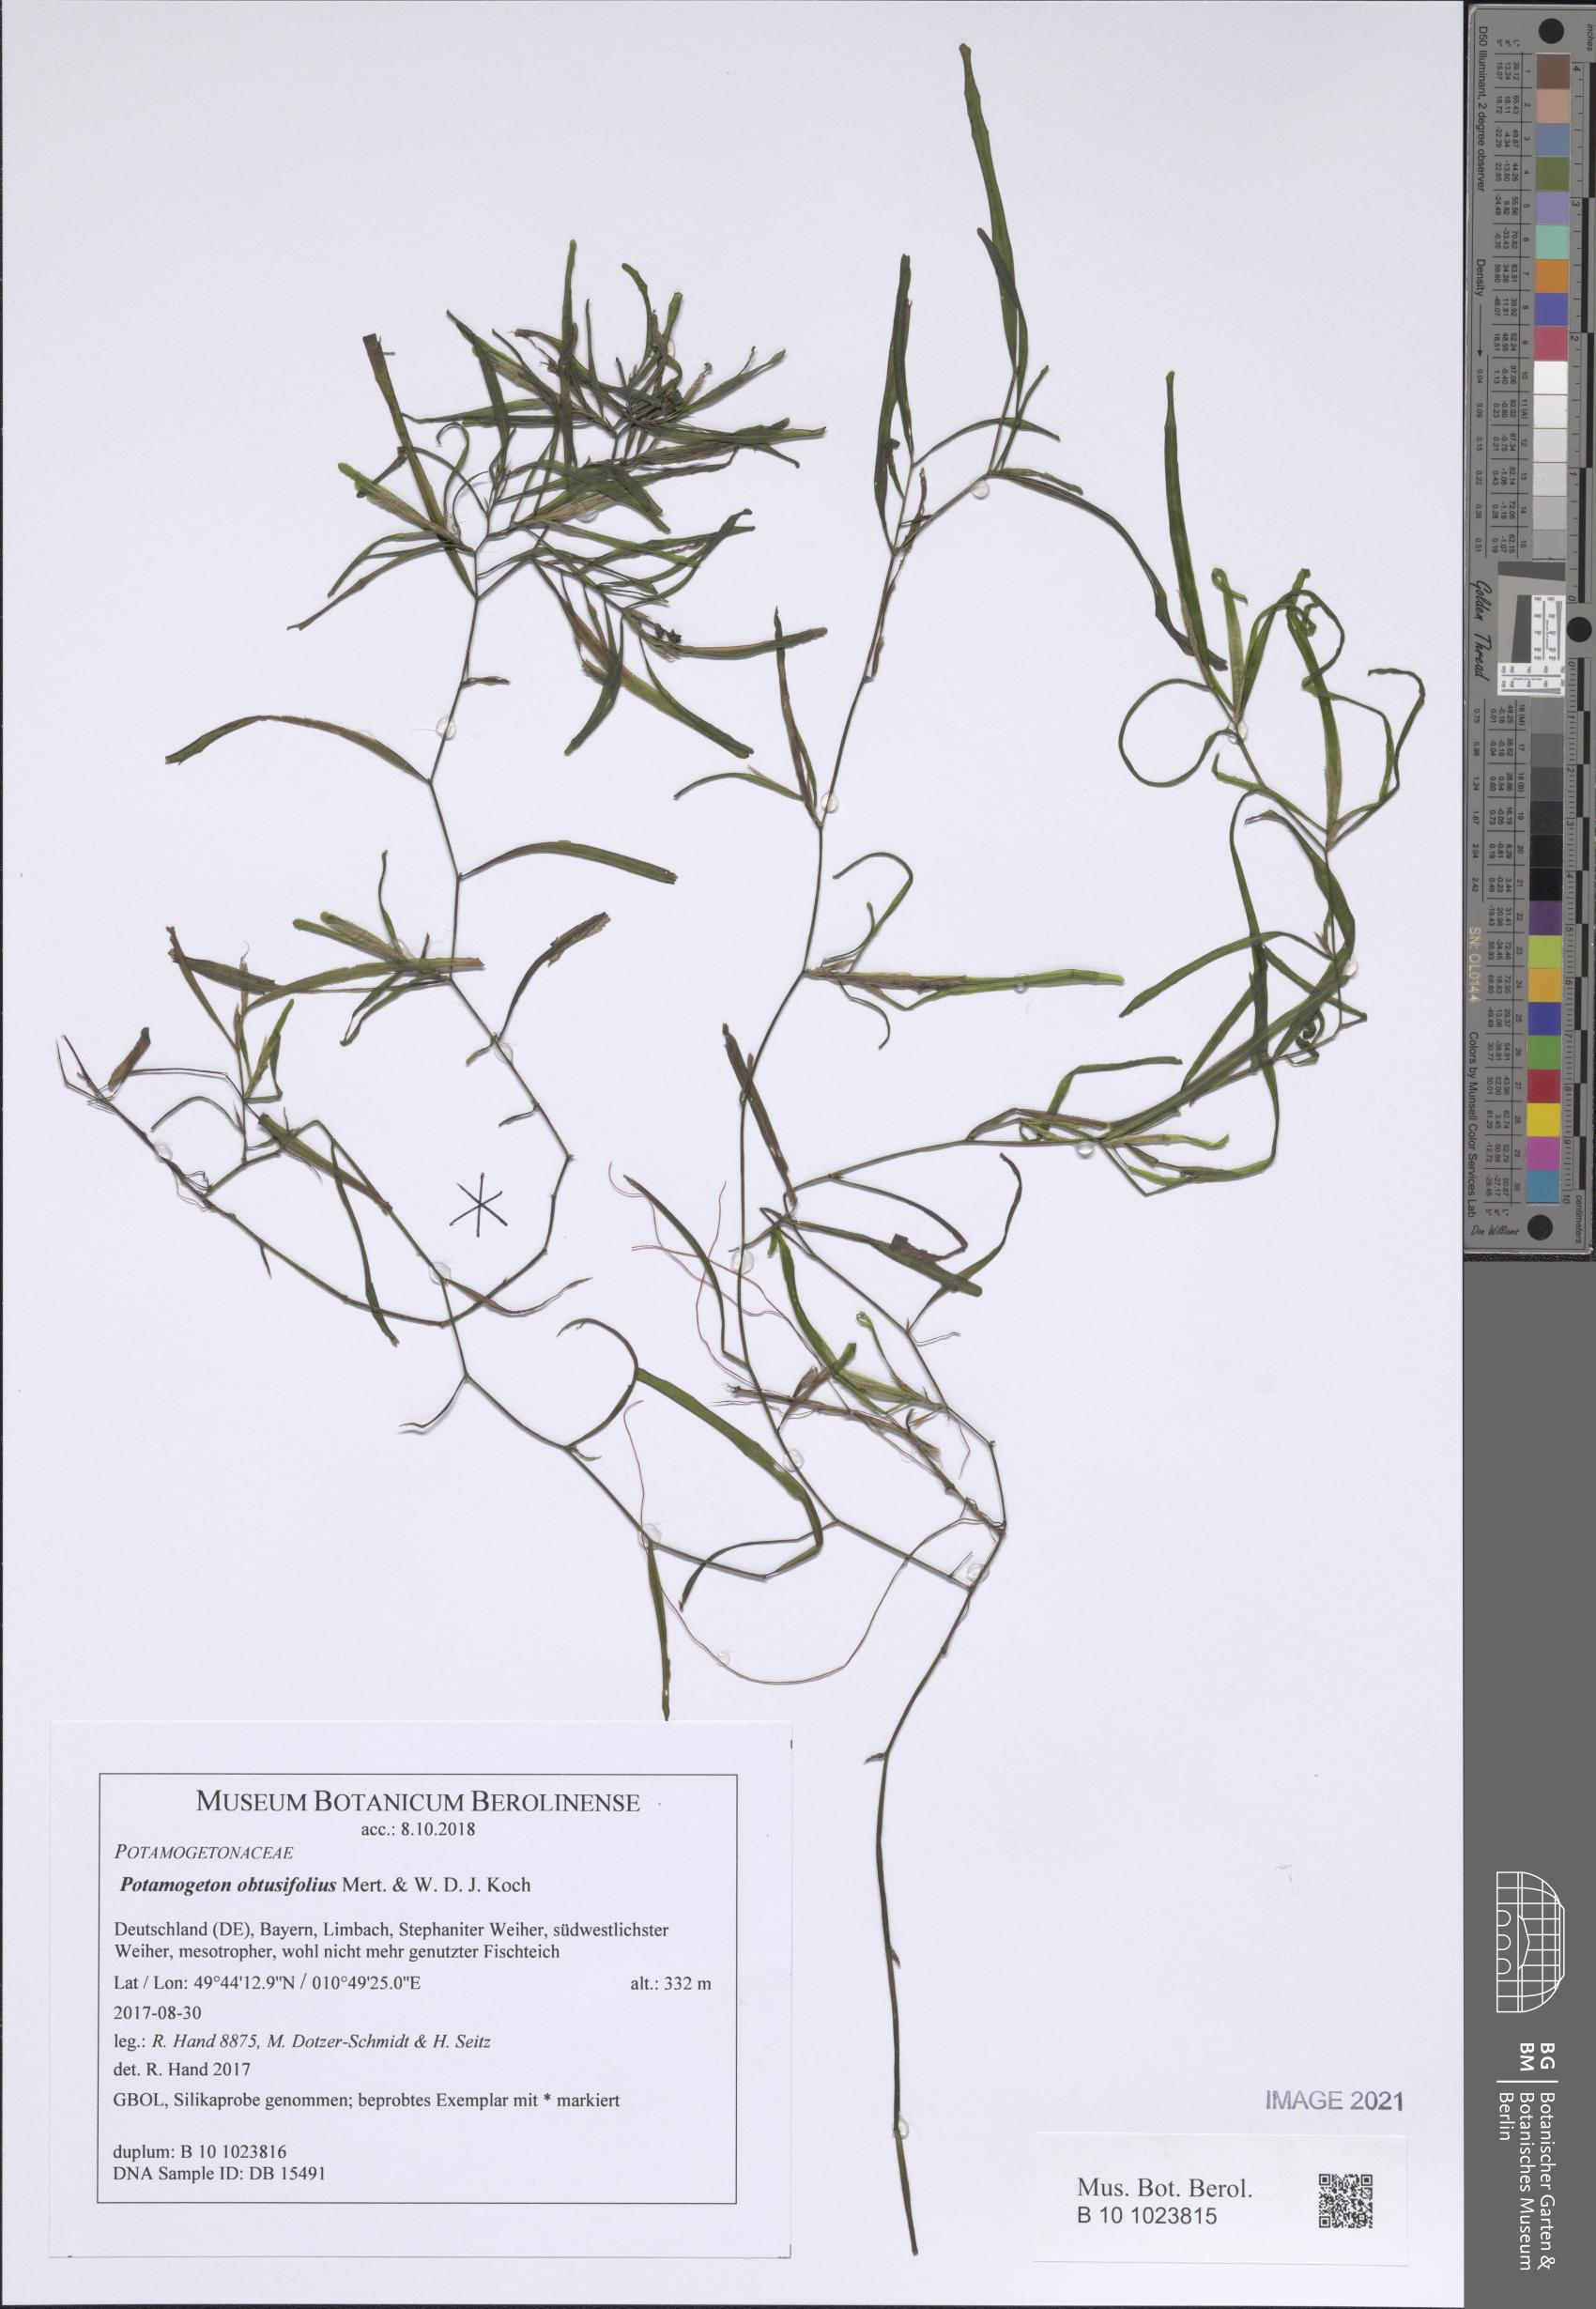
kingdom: Plantae
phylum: Tracheophyta
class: Liliopsida
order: Alismatales
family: Potamogetonaceae
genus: Potamogeton
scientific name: Potamogeton obtusifolius
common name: Blunt-leaved pondweed
